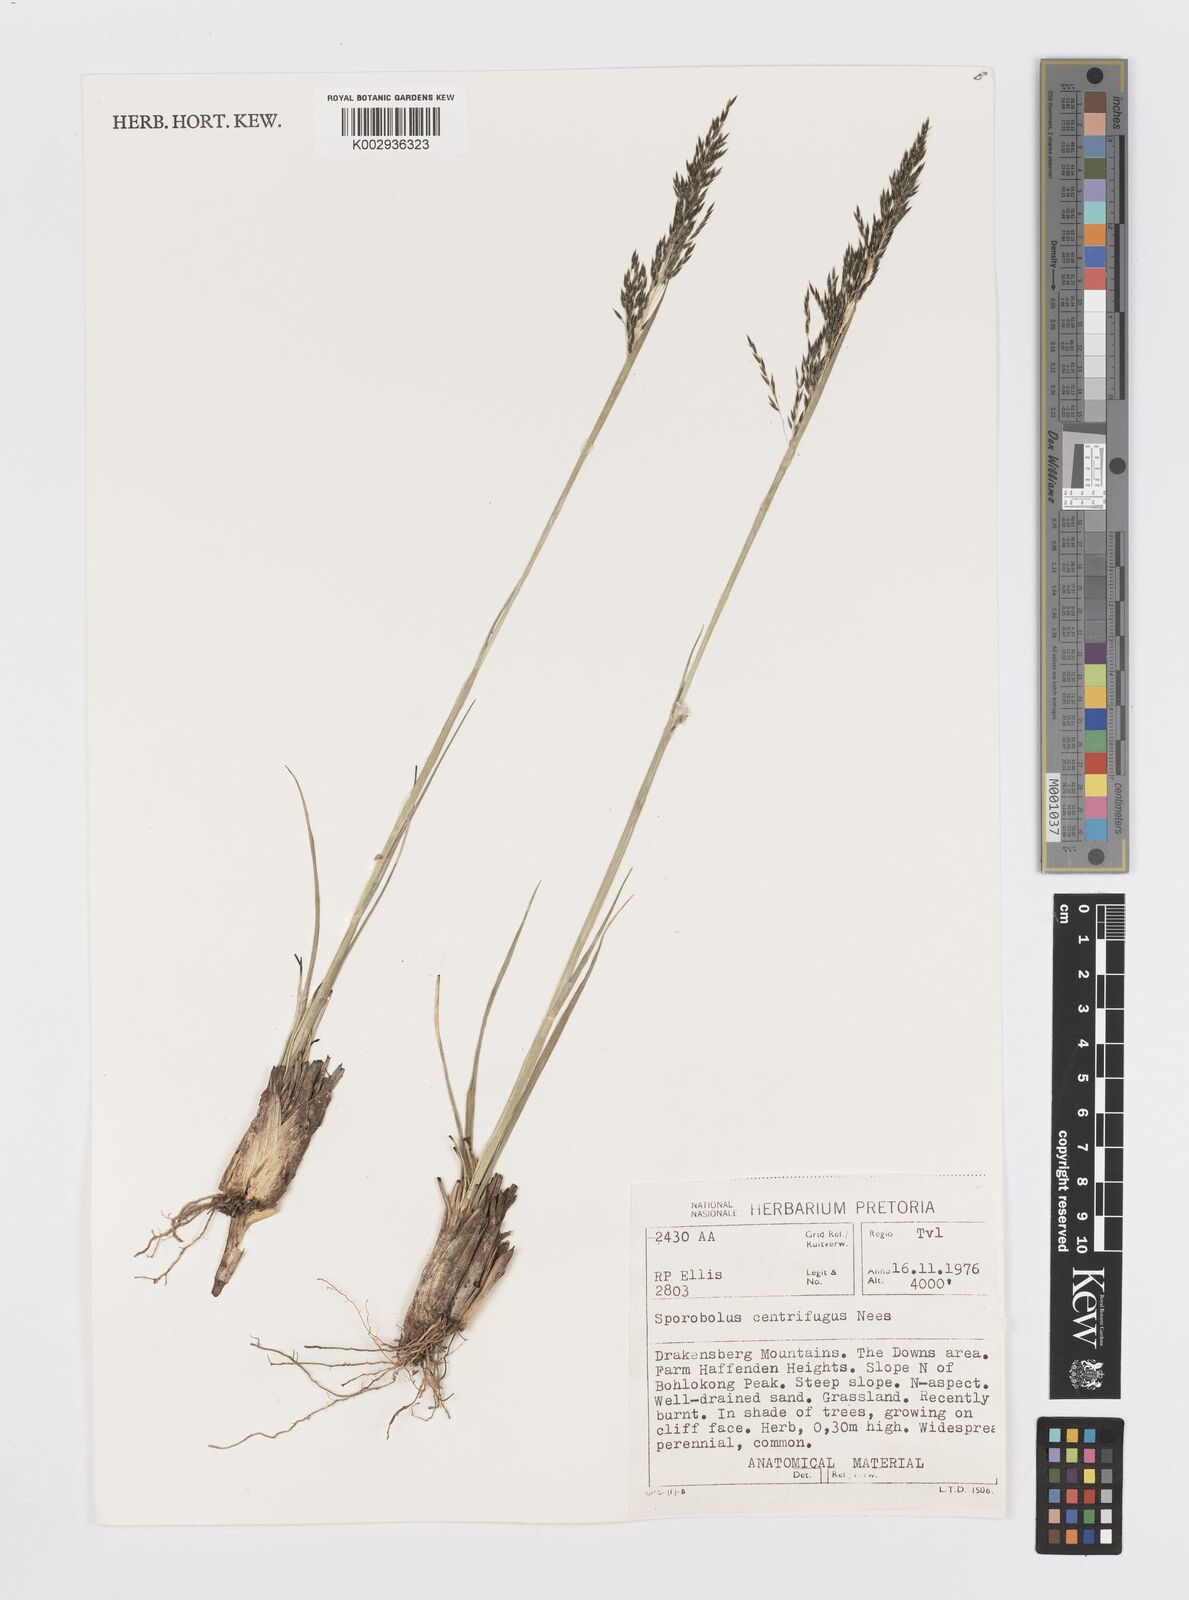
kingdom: Plantae
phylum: Tracheophyta
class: Liliopsida
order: Poales
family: Poaceae
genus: Sporobolus
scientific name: Sporobolus centrifugus
